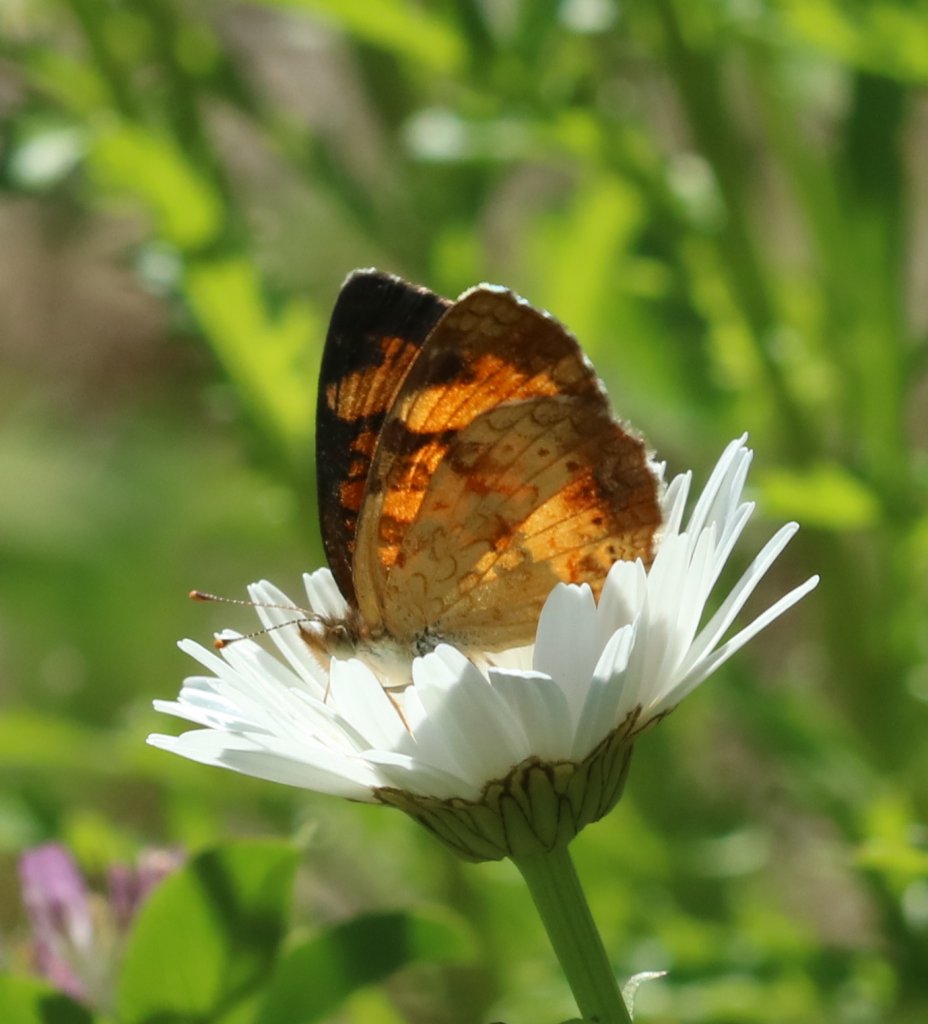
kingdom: Animalia
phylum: Arthropoda
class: Insecta
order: Lepidoptera
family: Nymphalidae
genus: Phyciodes
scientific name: Phyciodes tharos
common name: Northern Crescent
